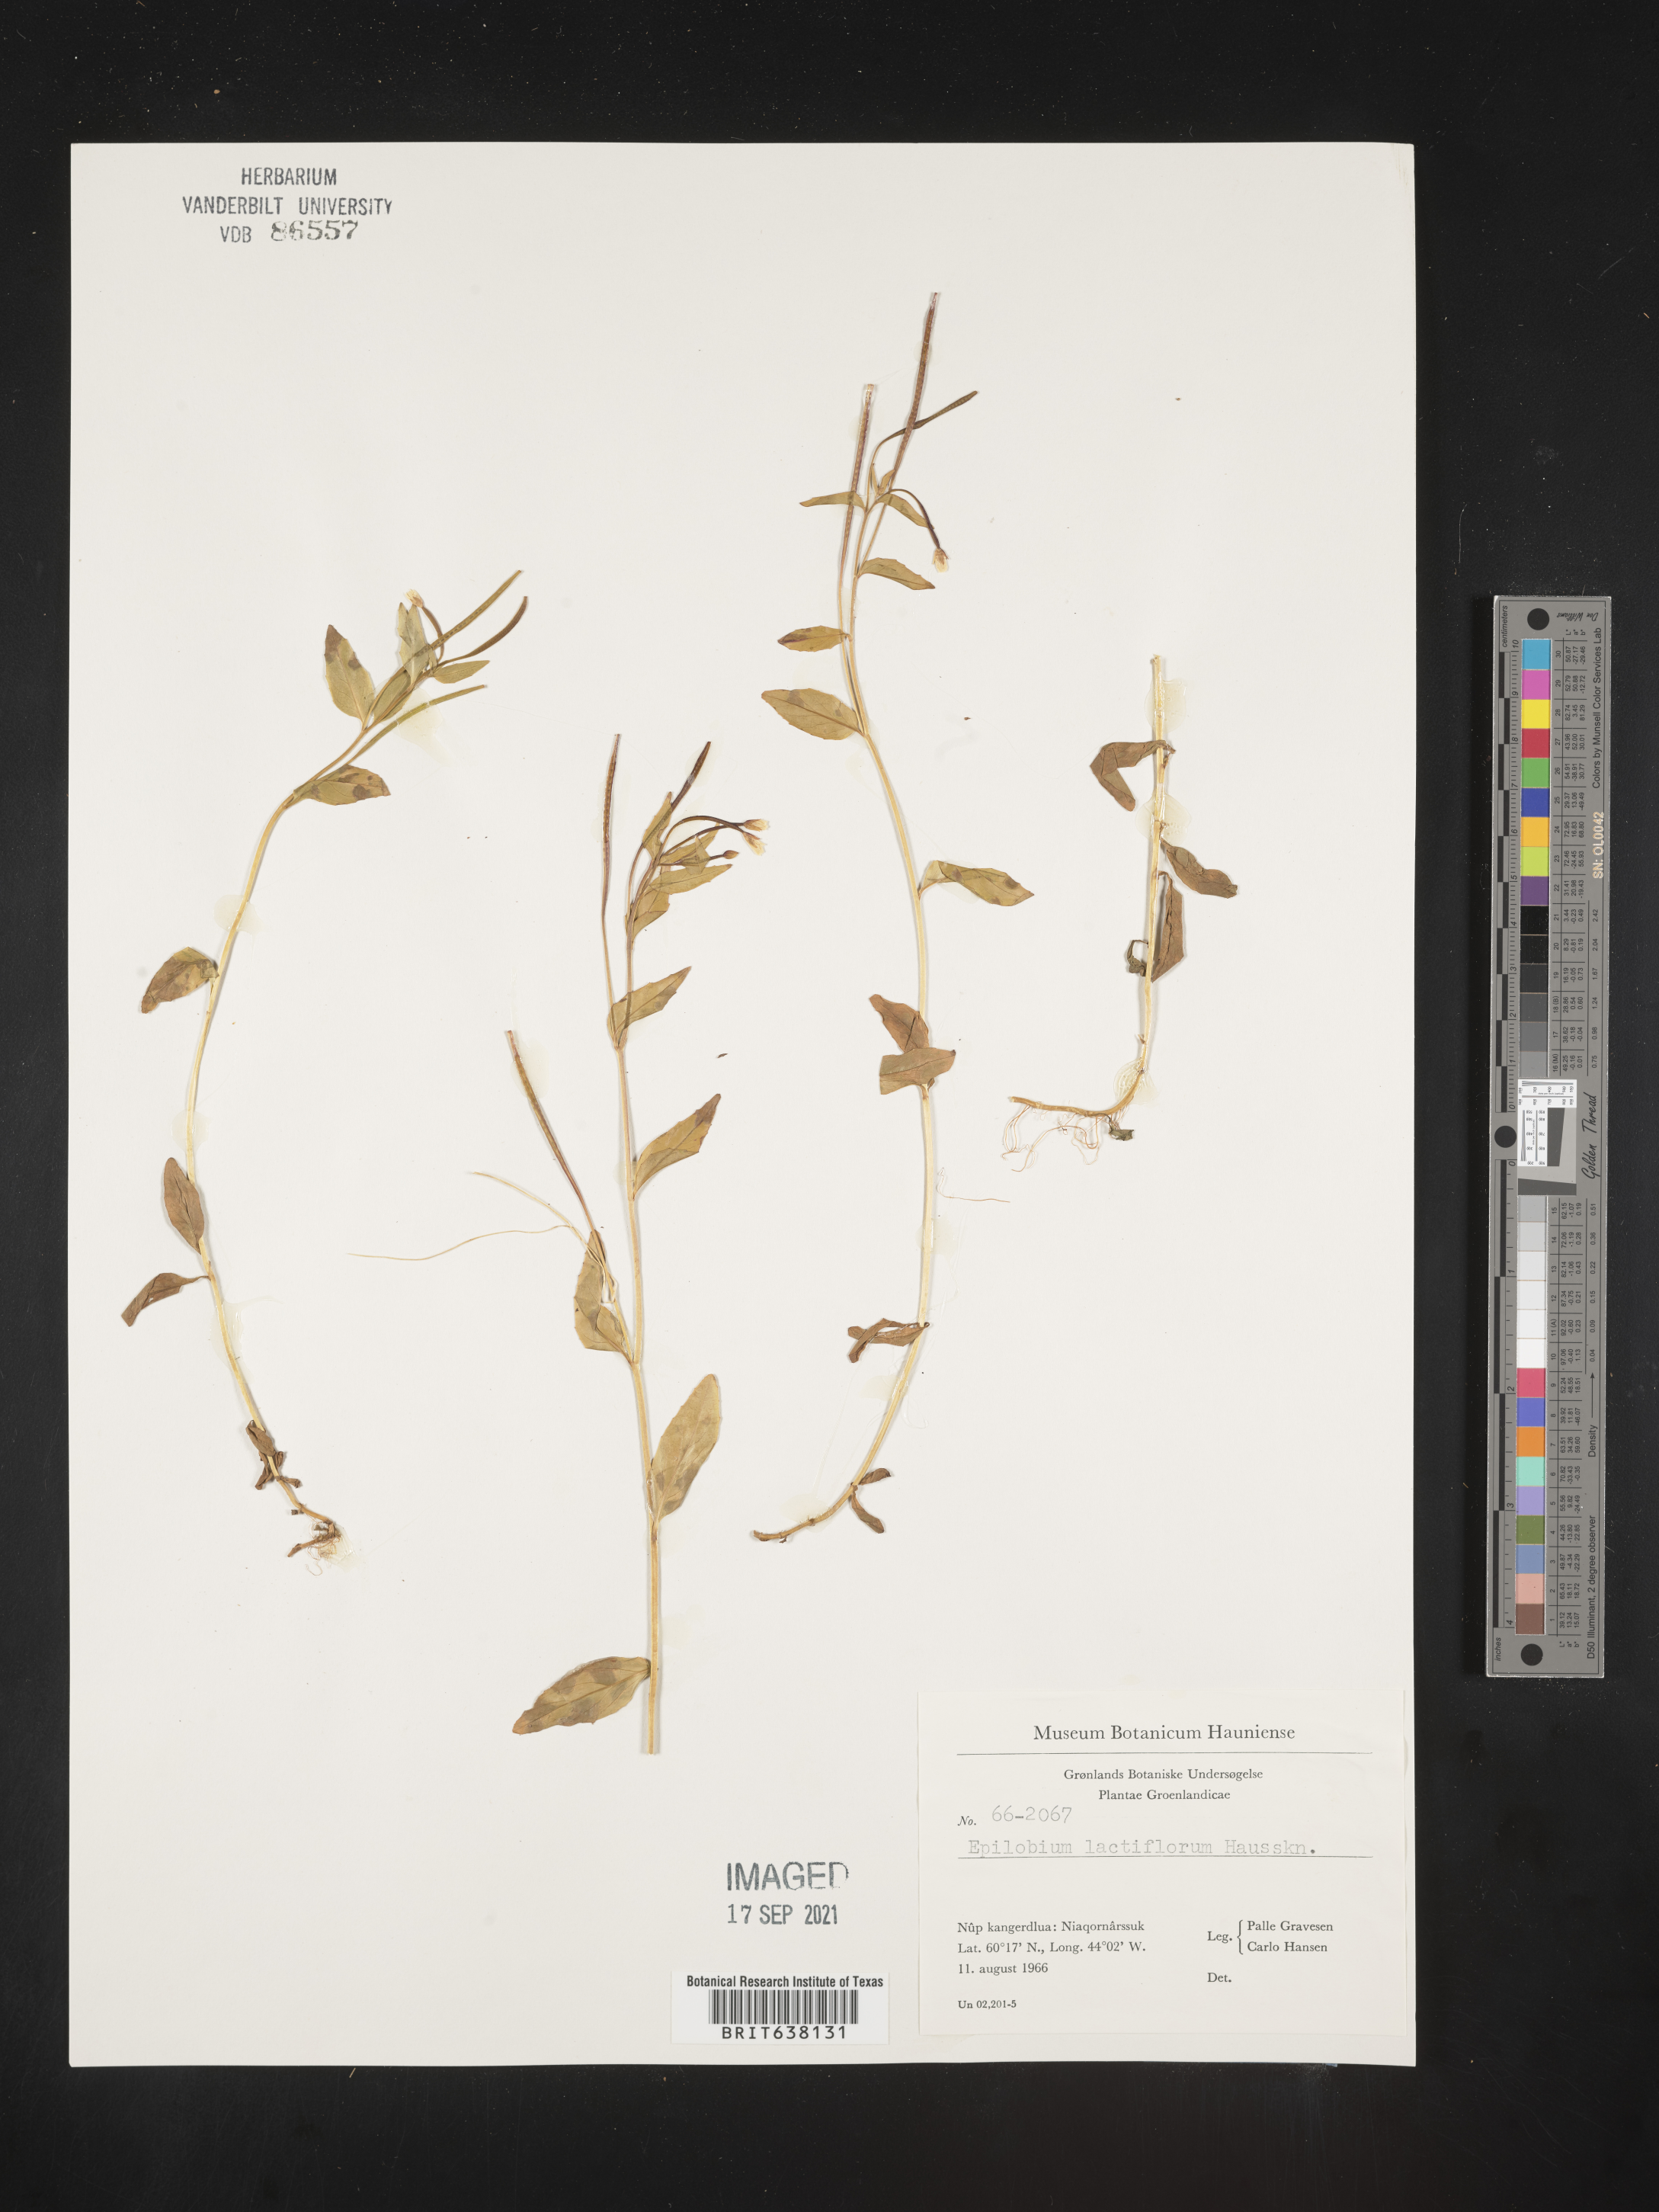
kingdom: Plantae
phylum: Tracheophyta
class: Magnoliopsida
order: Myrtales
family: Onagraceae
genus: Epilobium
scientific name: Epilobium
